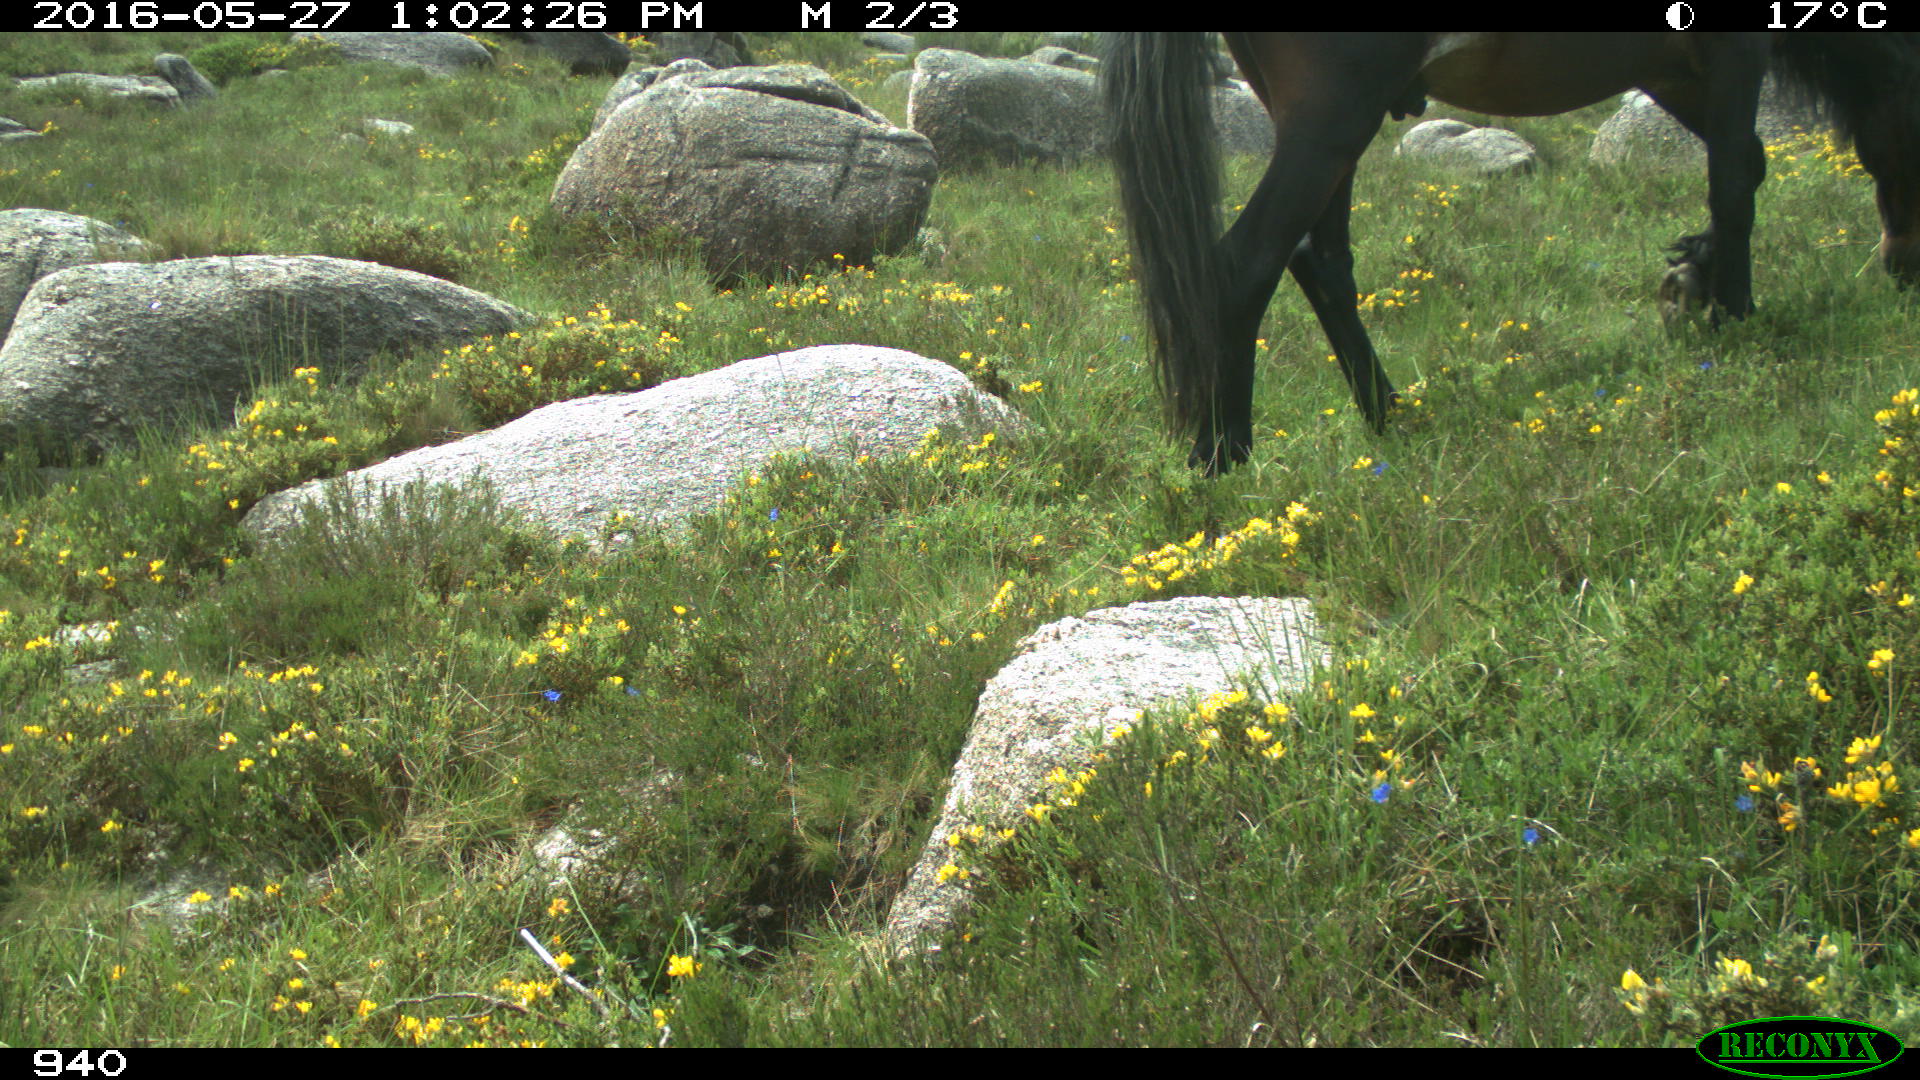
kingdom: Animalia
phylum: Chordata
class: Mammalia
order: Perissodactyla
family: Equidae
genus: Equus
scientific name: Equus caballus
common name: Horse
